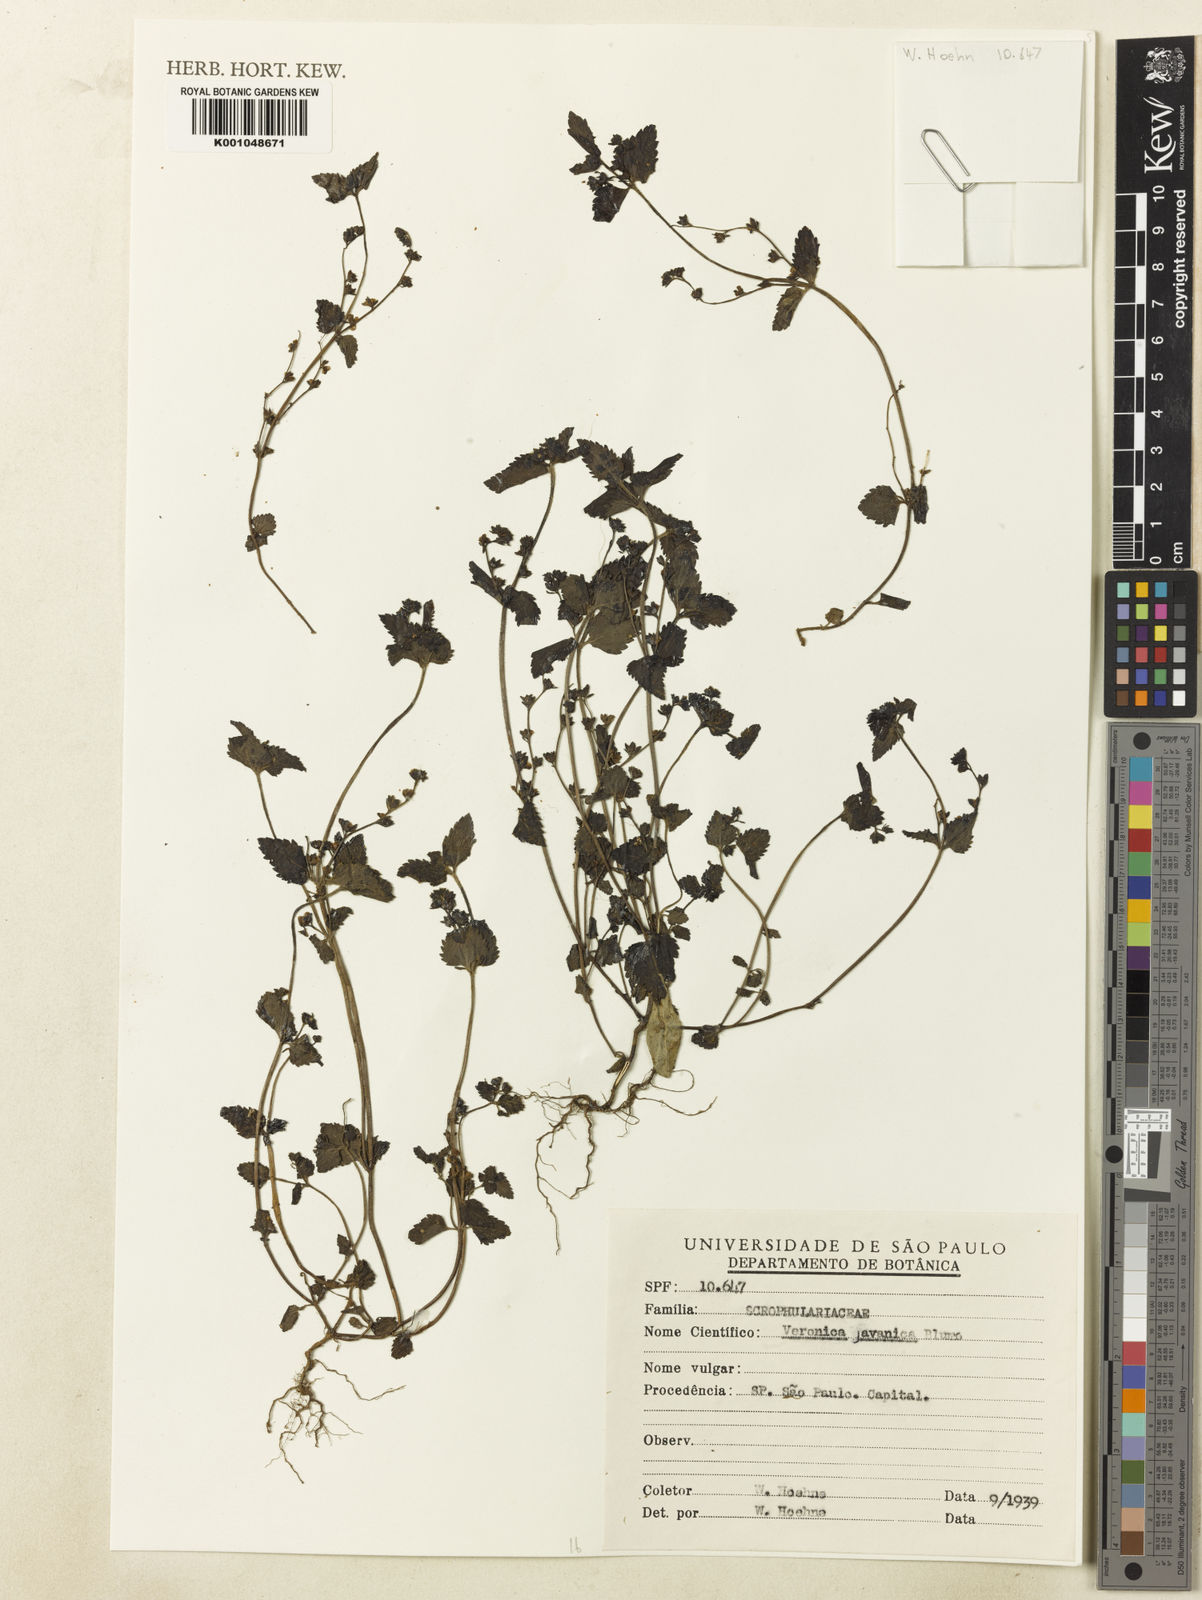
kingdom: Plantae
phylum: Tracheophyta
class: Magnoliopsida
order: Lamiales
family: Plantaginaceae
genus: Veronica
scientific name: Veronica javanica
